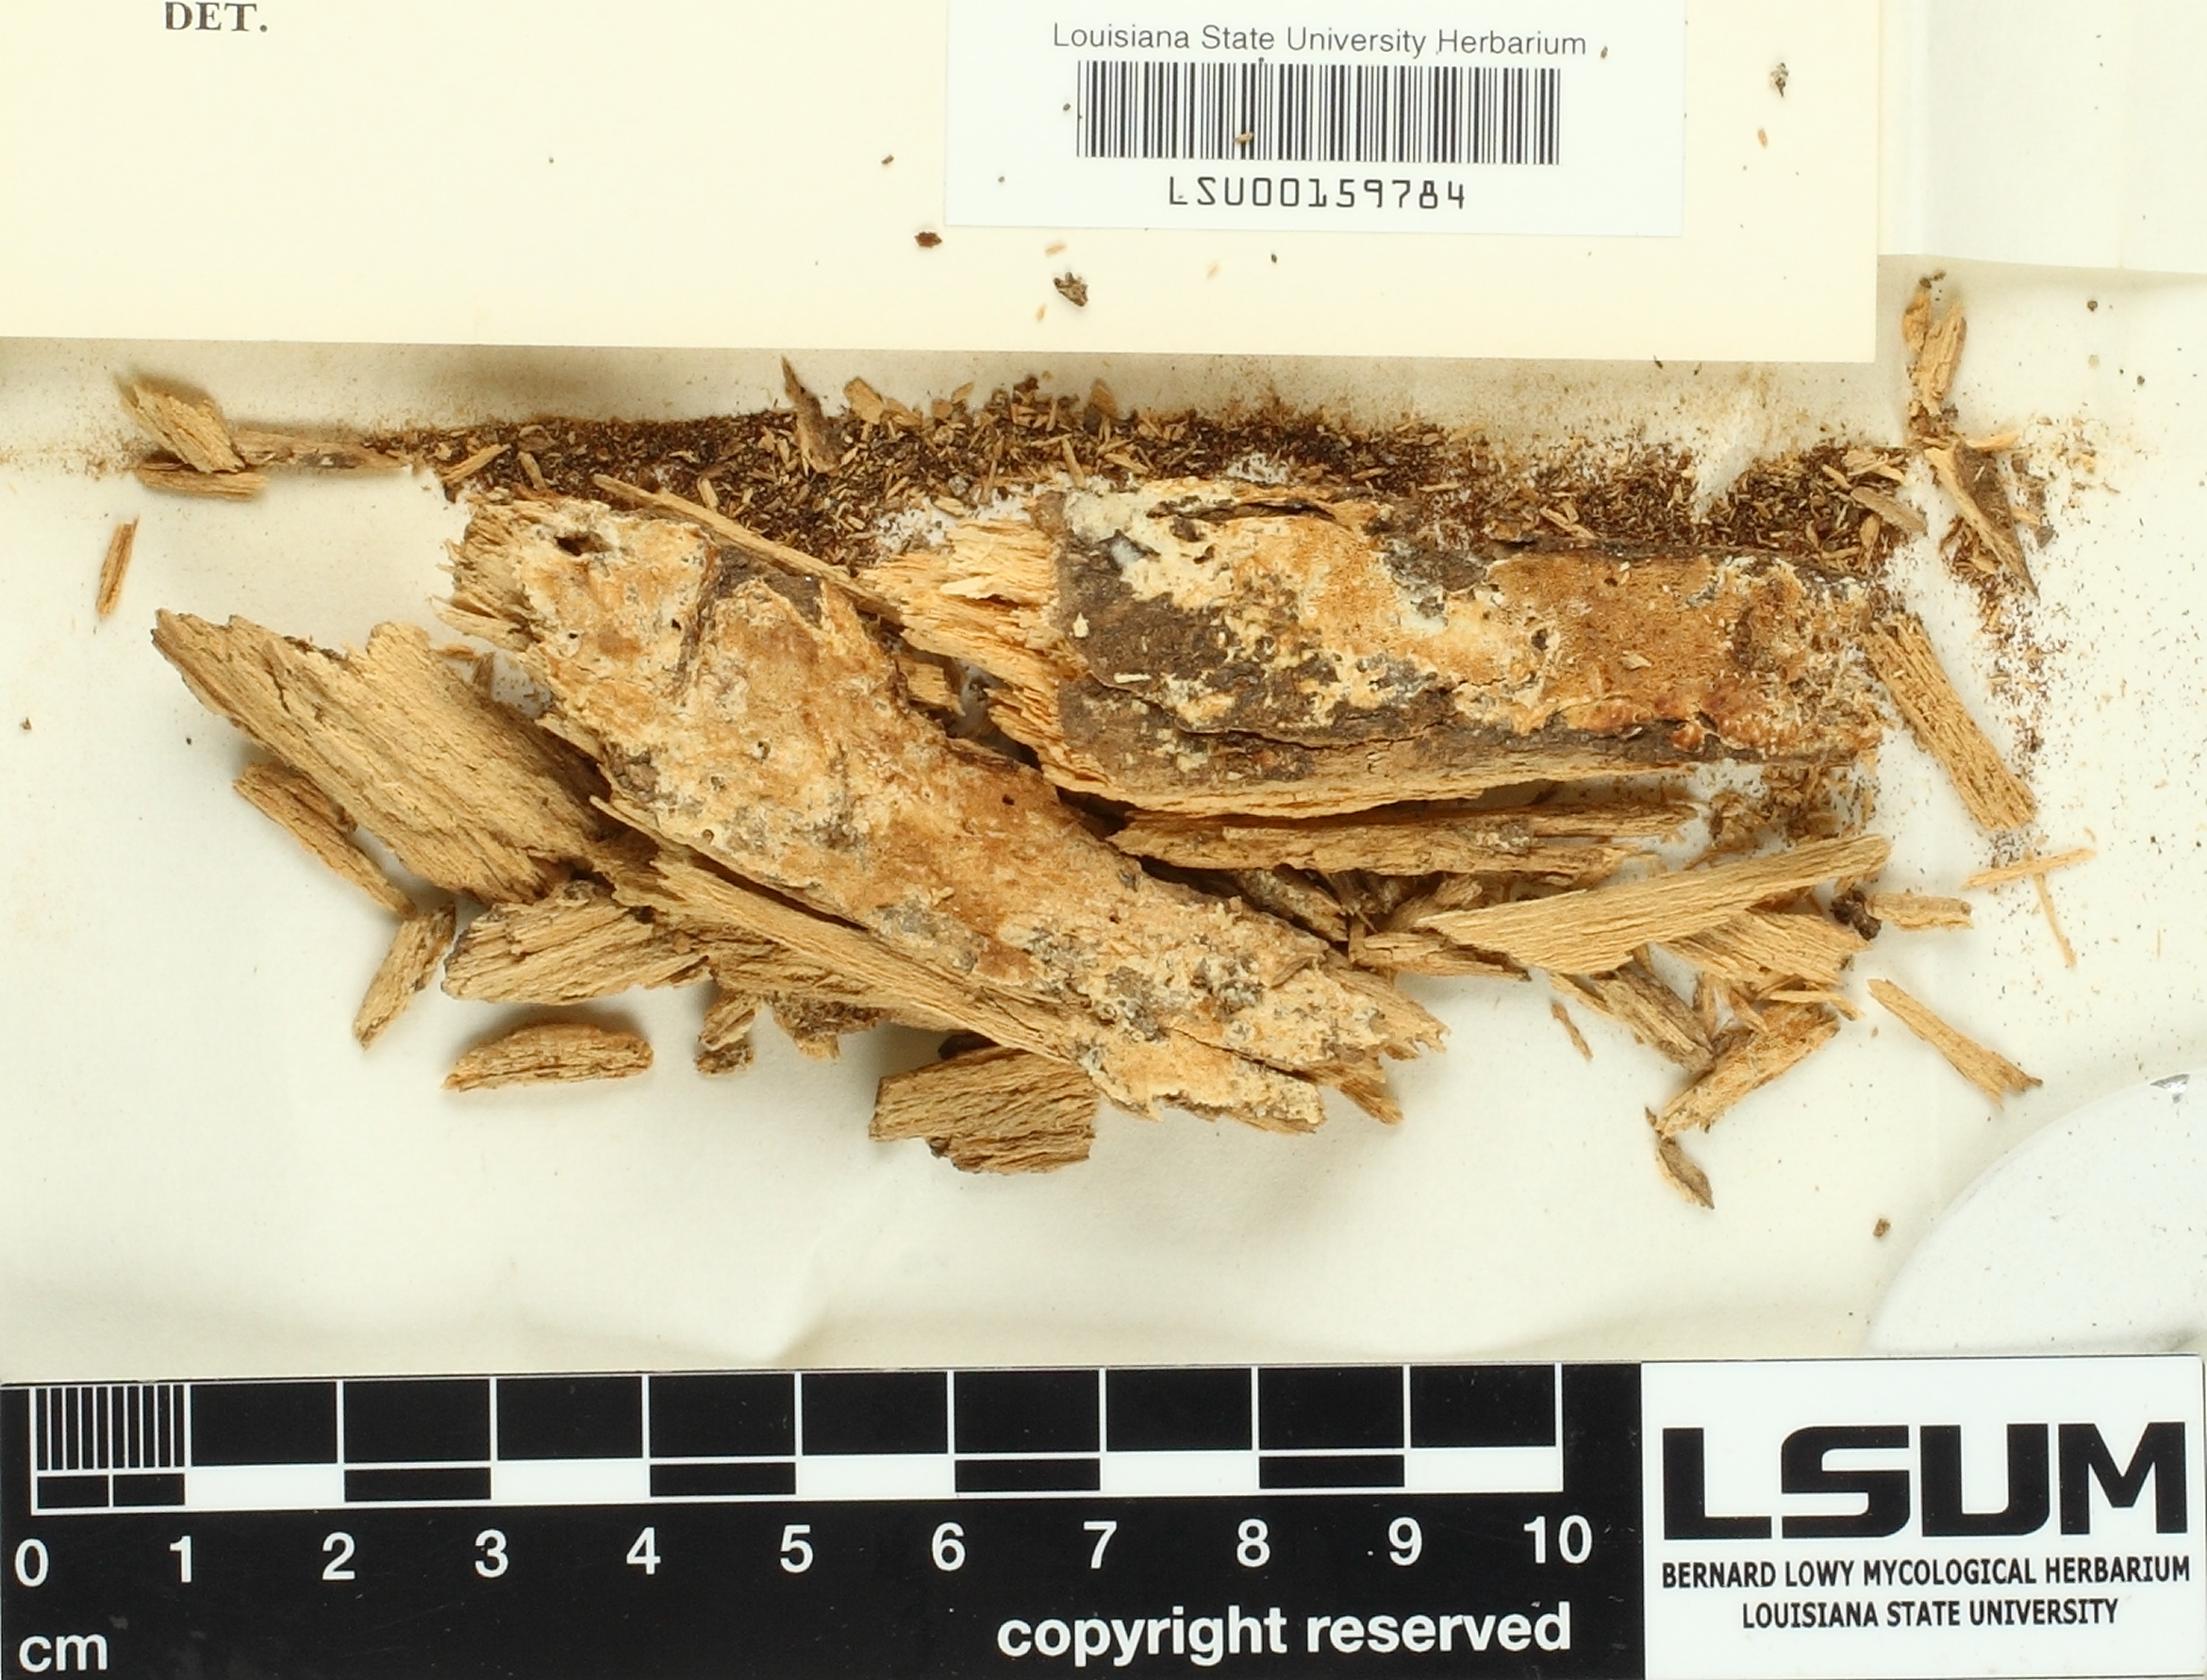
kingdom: Fungi
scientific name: Fungi
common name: Fungi
